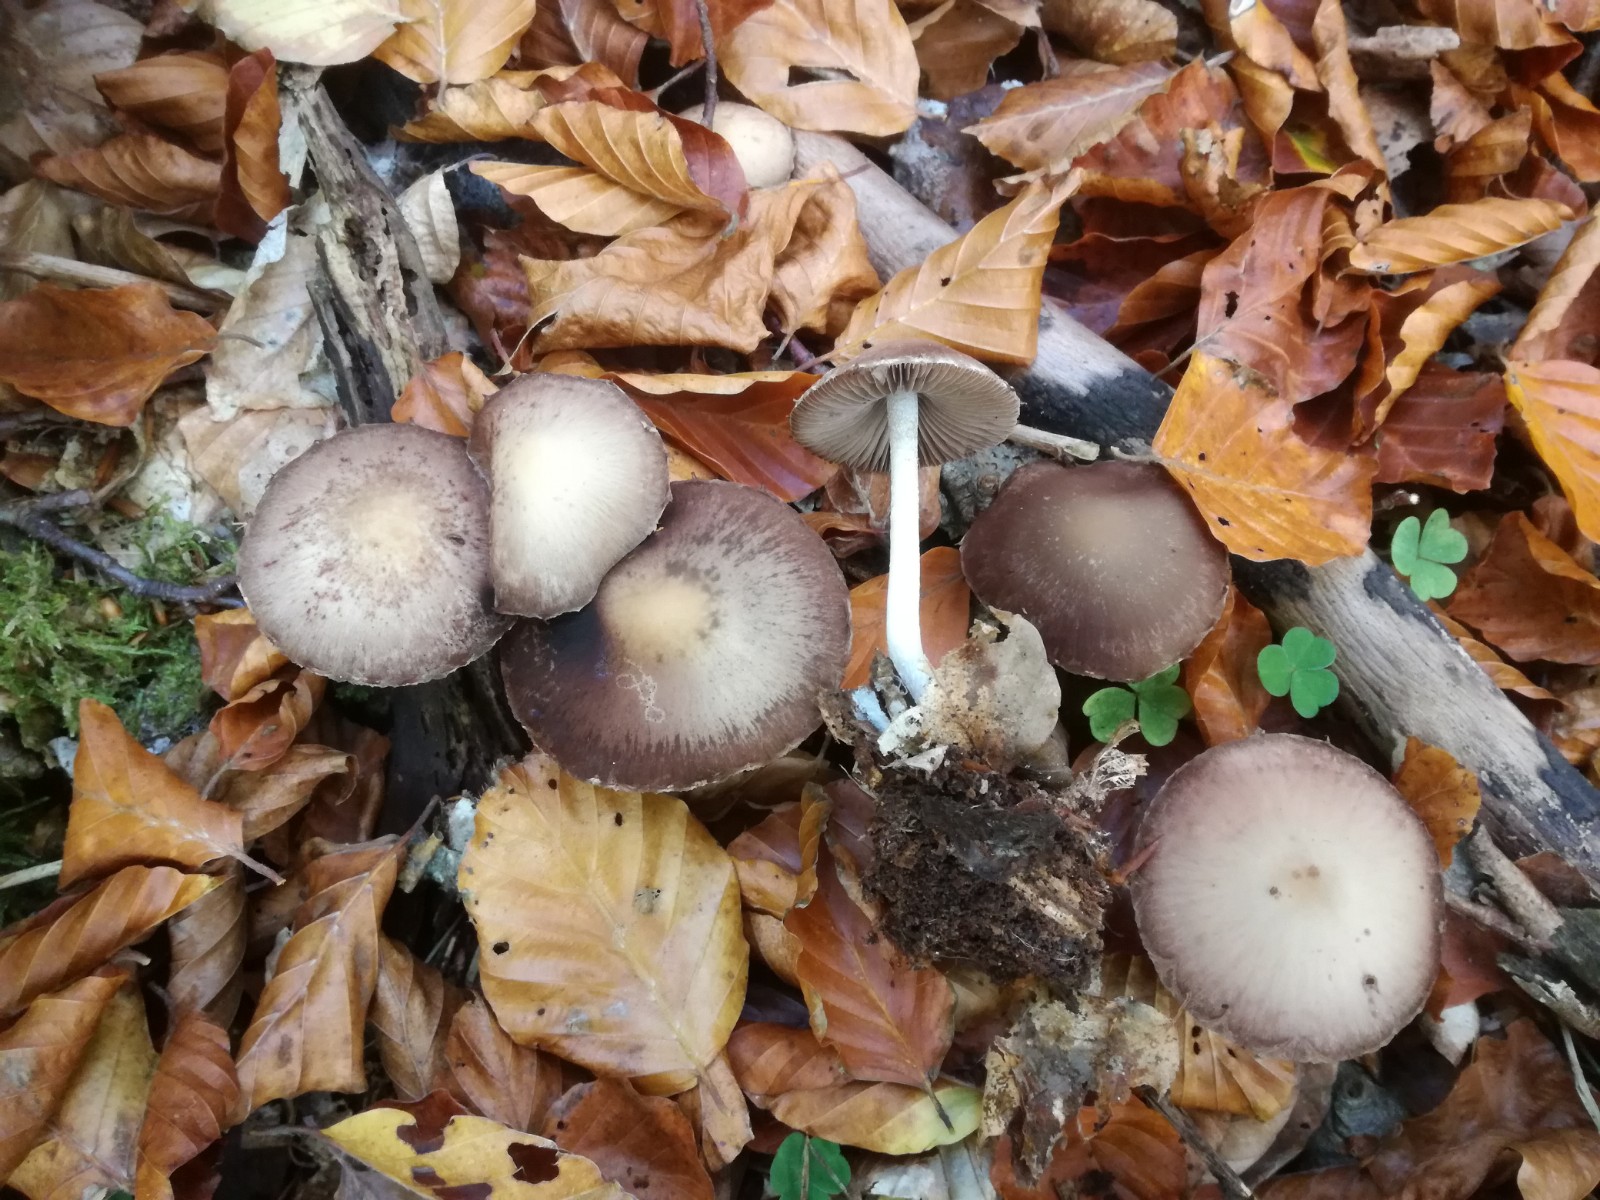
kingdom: Fungi
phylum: Basidiomycota
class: Agaricomycetes
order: Agaricales
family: Psathyrellaceae
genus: Psathyrella
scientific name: Psathyrella spintrigeroides
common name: tandet mørkhat
